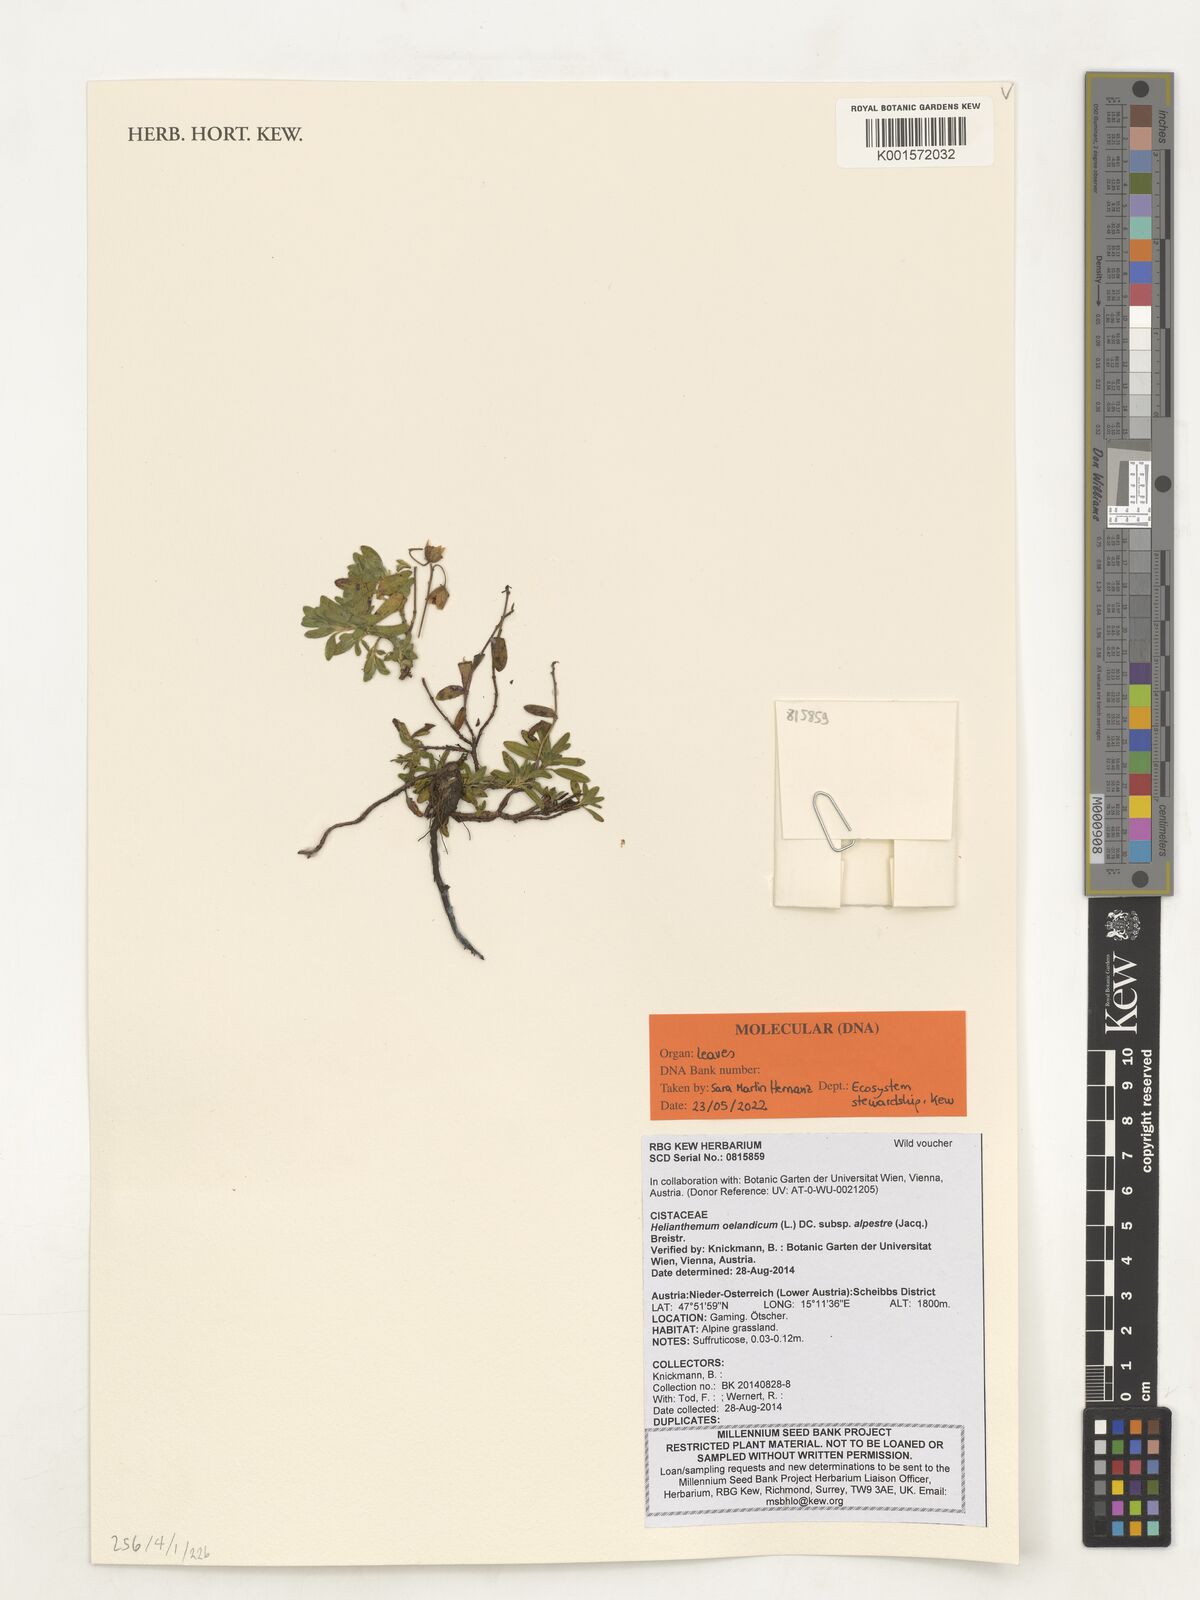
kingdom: Plantae
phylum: Tracheophyta
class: Magnoliopsida
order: Malvales
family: Cistaceae
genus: Helianthemum
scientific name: Helianthemum oelandicum
